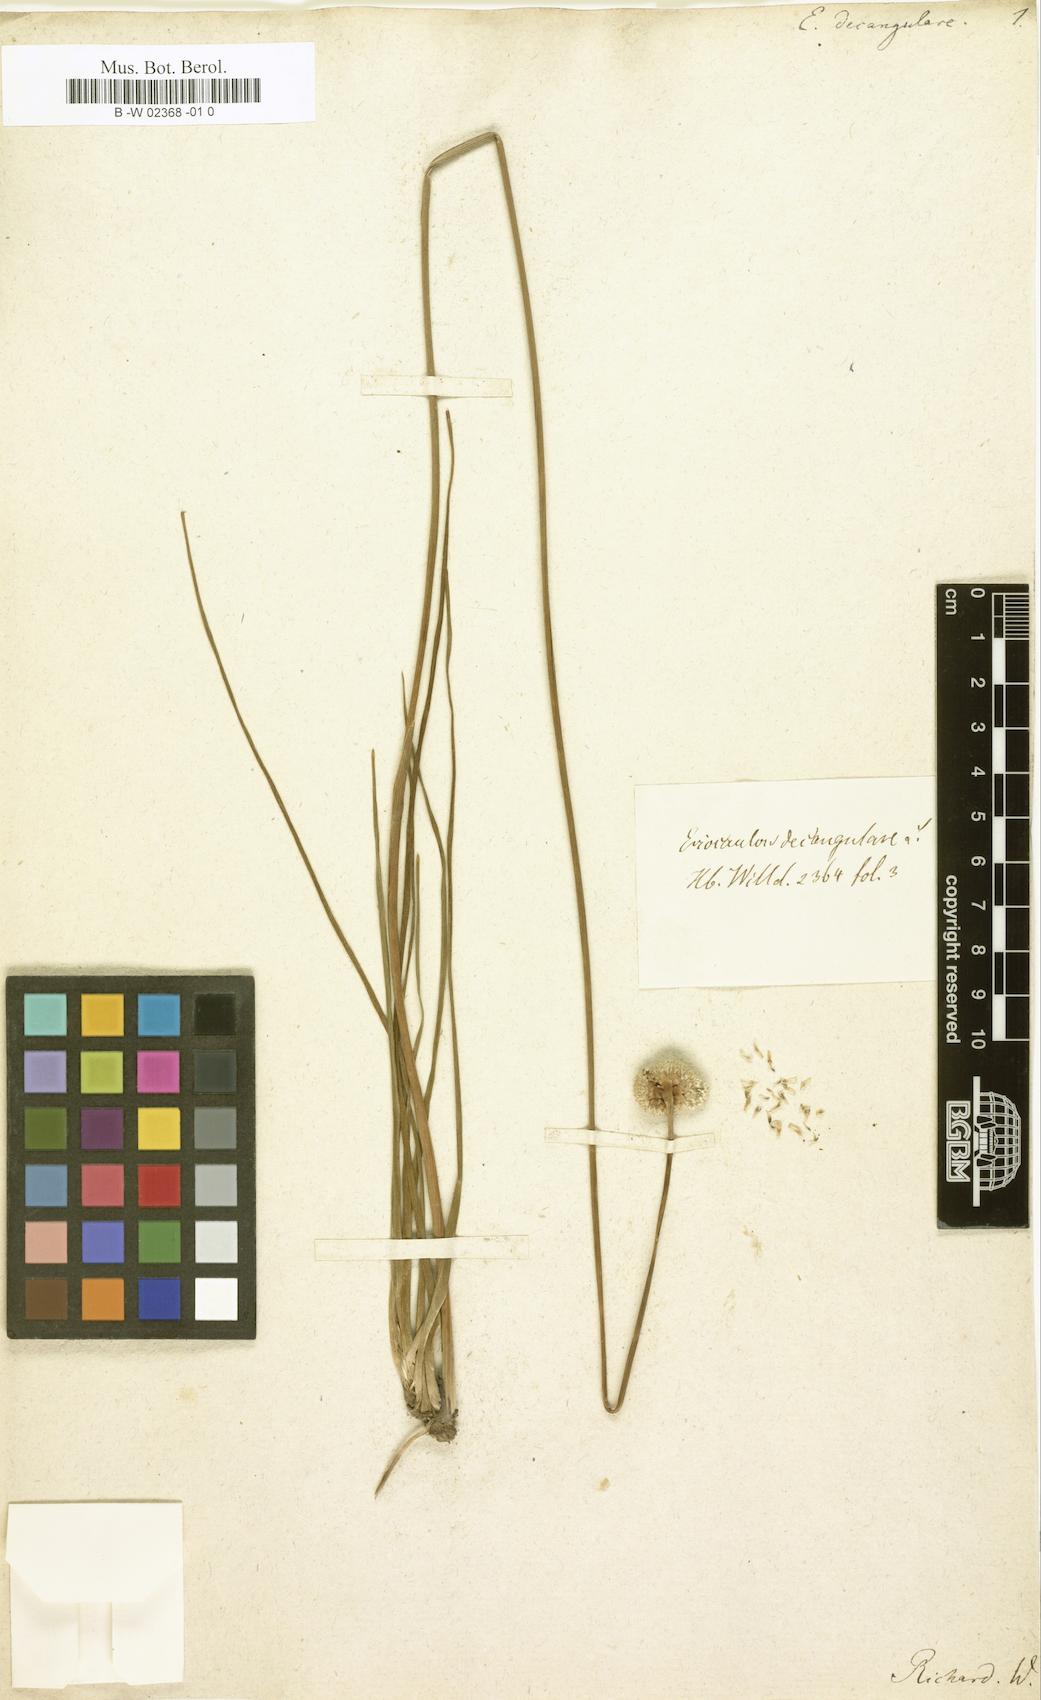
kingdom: Plantae
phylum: Tracheophyta
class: Liliopsida
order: Poales
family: Eriocaulaceae
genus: Eriocaulon
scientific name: Eriocaulon decangulare
